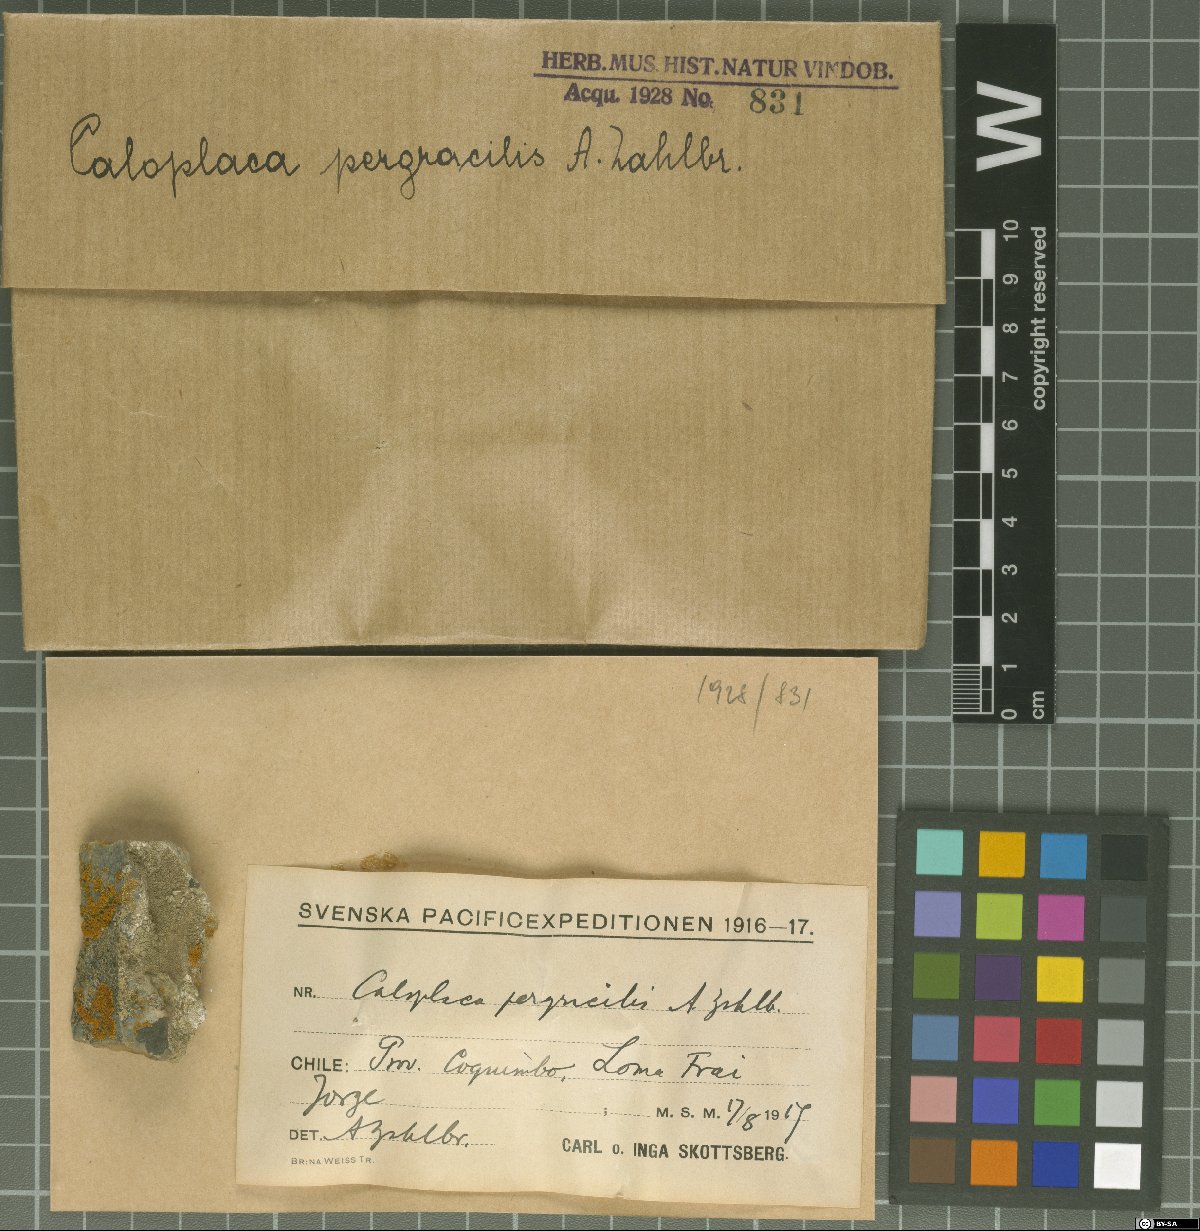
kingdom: Fungi
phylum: Ascomycota
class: Lecanoromycetes
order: Teloschistales
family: Teloschistaceae
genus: Caloplaca
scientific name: Caloplaca
